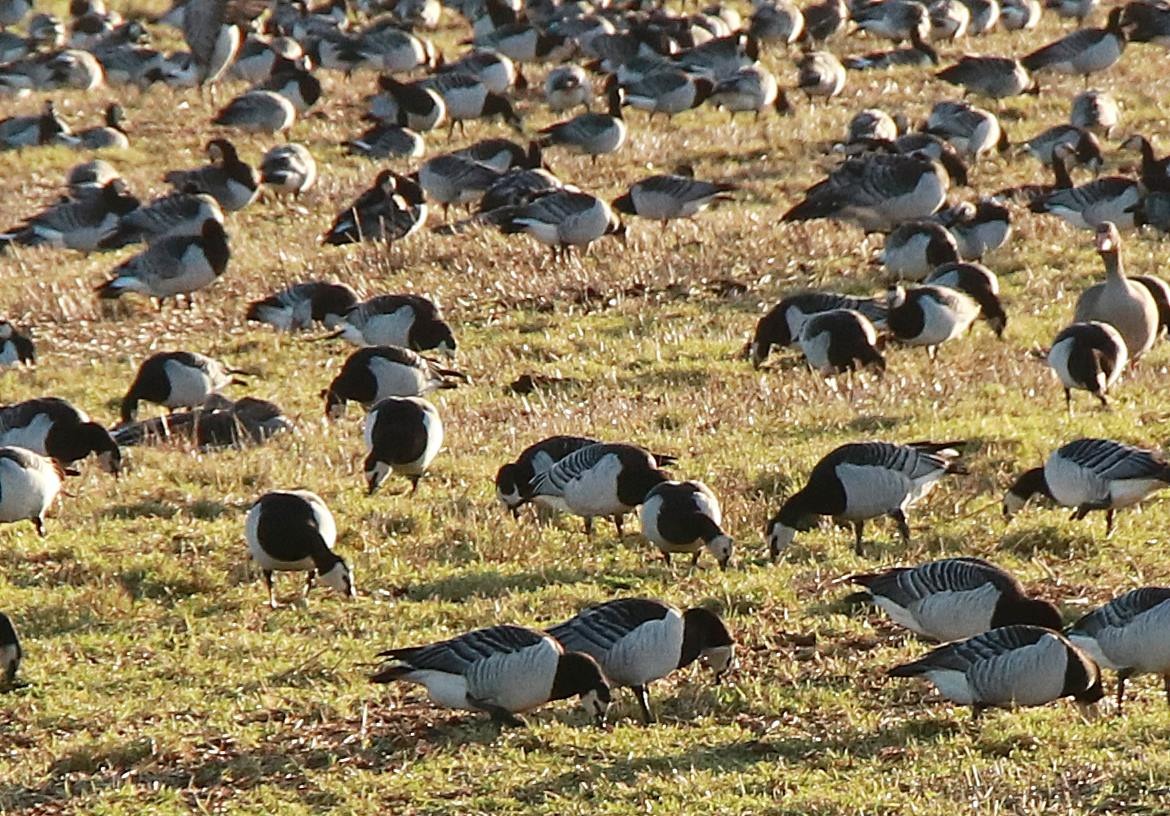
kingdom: Animalia
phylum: Chordata
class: Aves
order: Anseriformes
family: Anatidae
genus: Branta
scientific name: Branta leucopsis
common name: Bramgås
